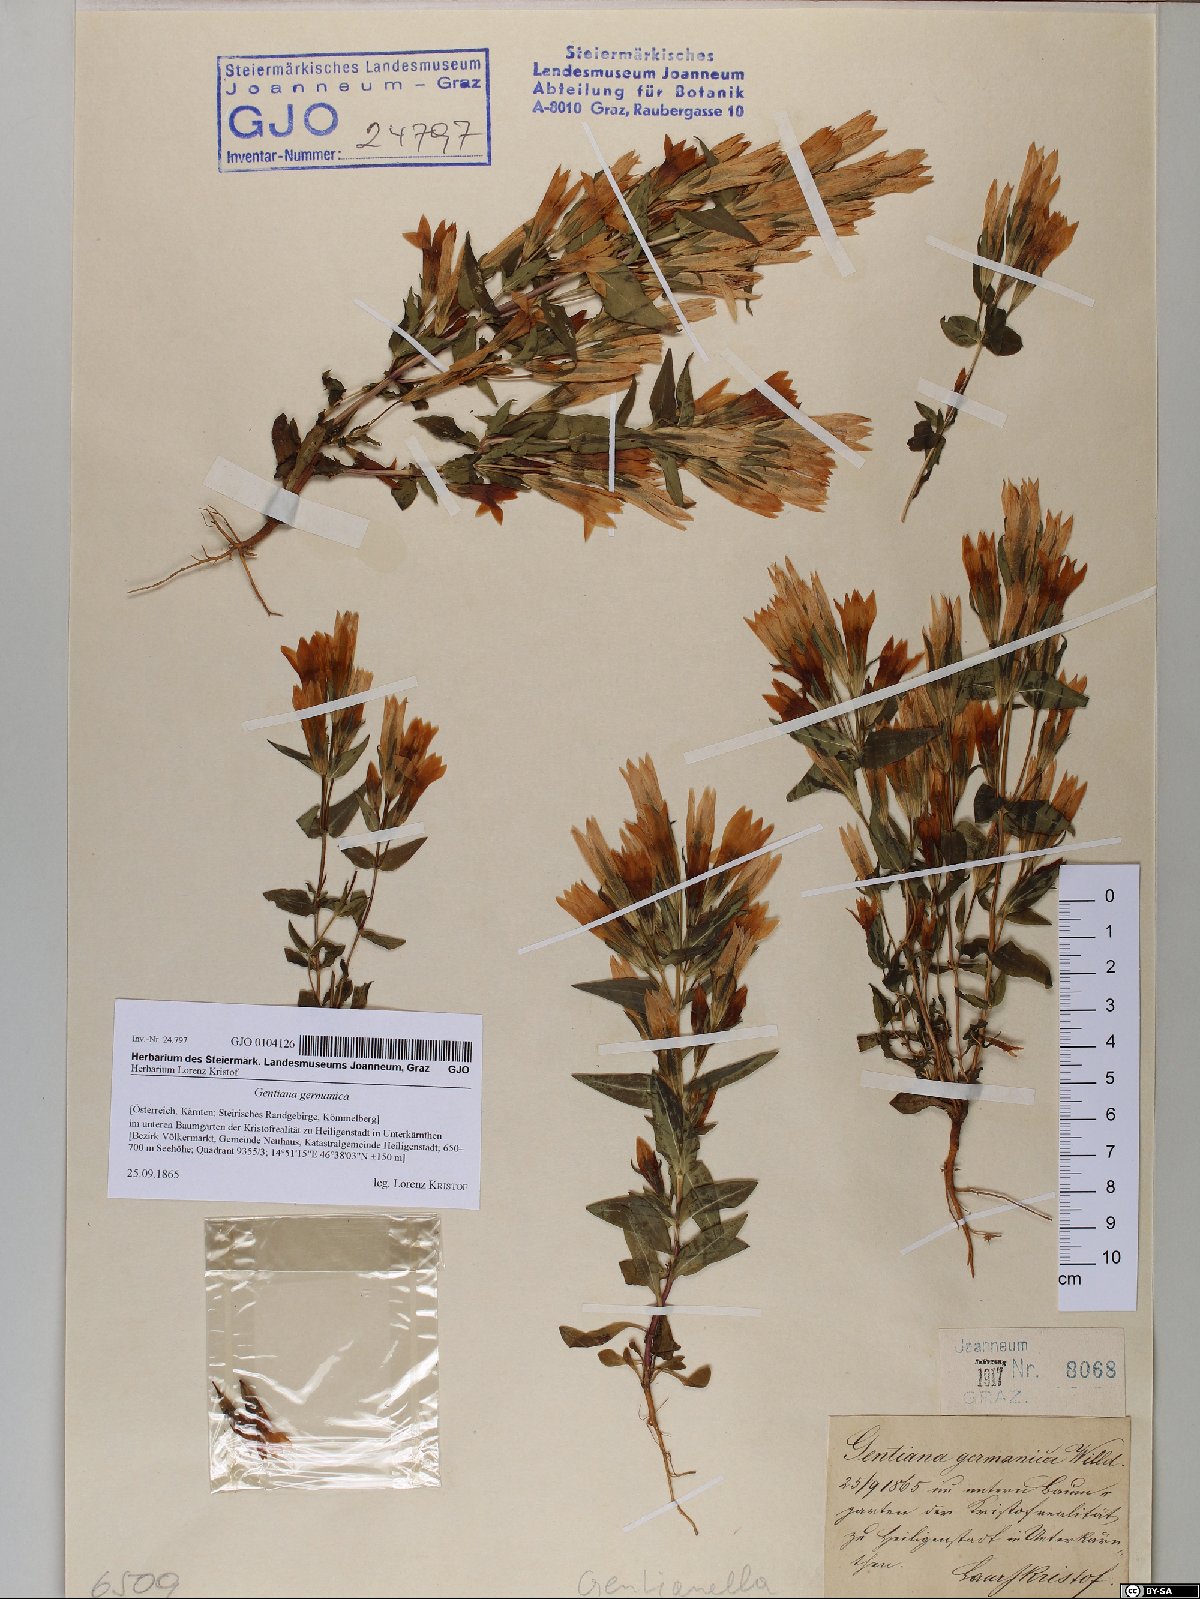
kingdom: Plantae
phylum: Tracheophyta
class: Magnoliopsida
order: Gentianales
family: Gentianaceae
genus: Gentianella
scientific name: Gentianella germanica
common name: Chiltern-gentian
